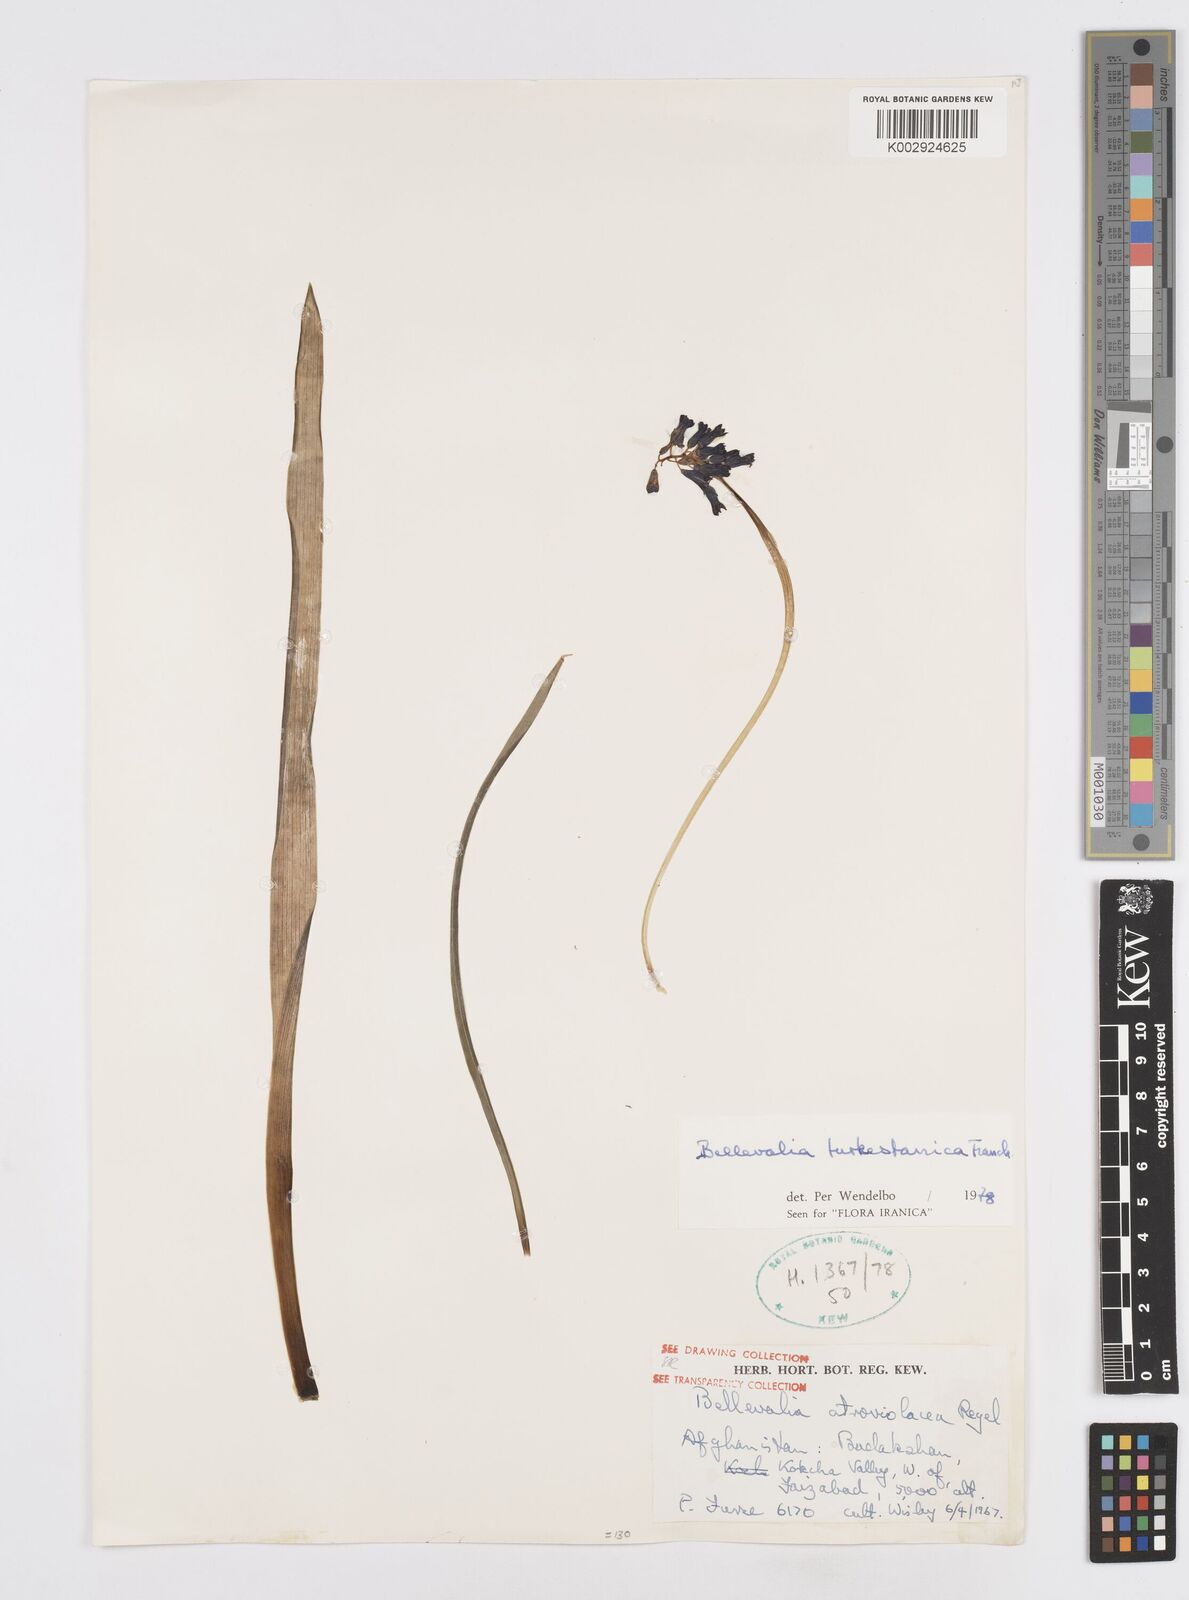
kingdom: Plantae
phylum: Tracheophyta
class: Liliopsida
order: Asparagales
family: Asparagaceae
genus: Bellevalia
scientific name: Bellevalia turkestanica
